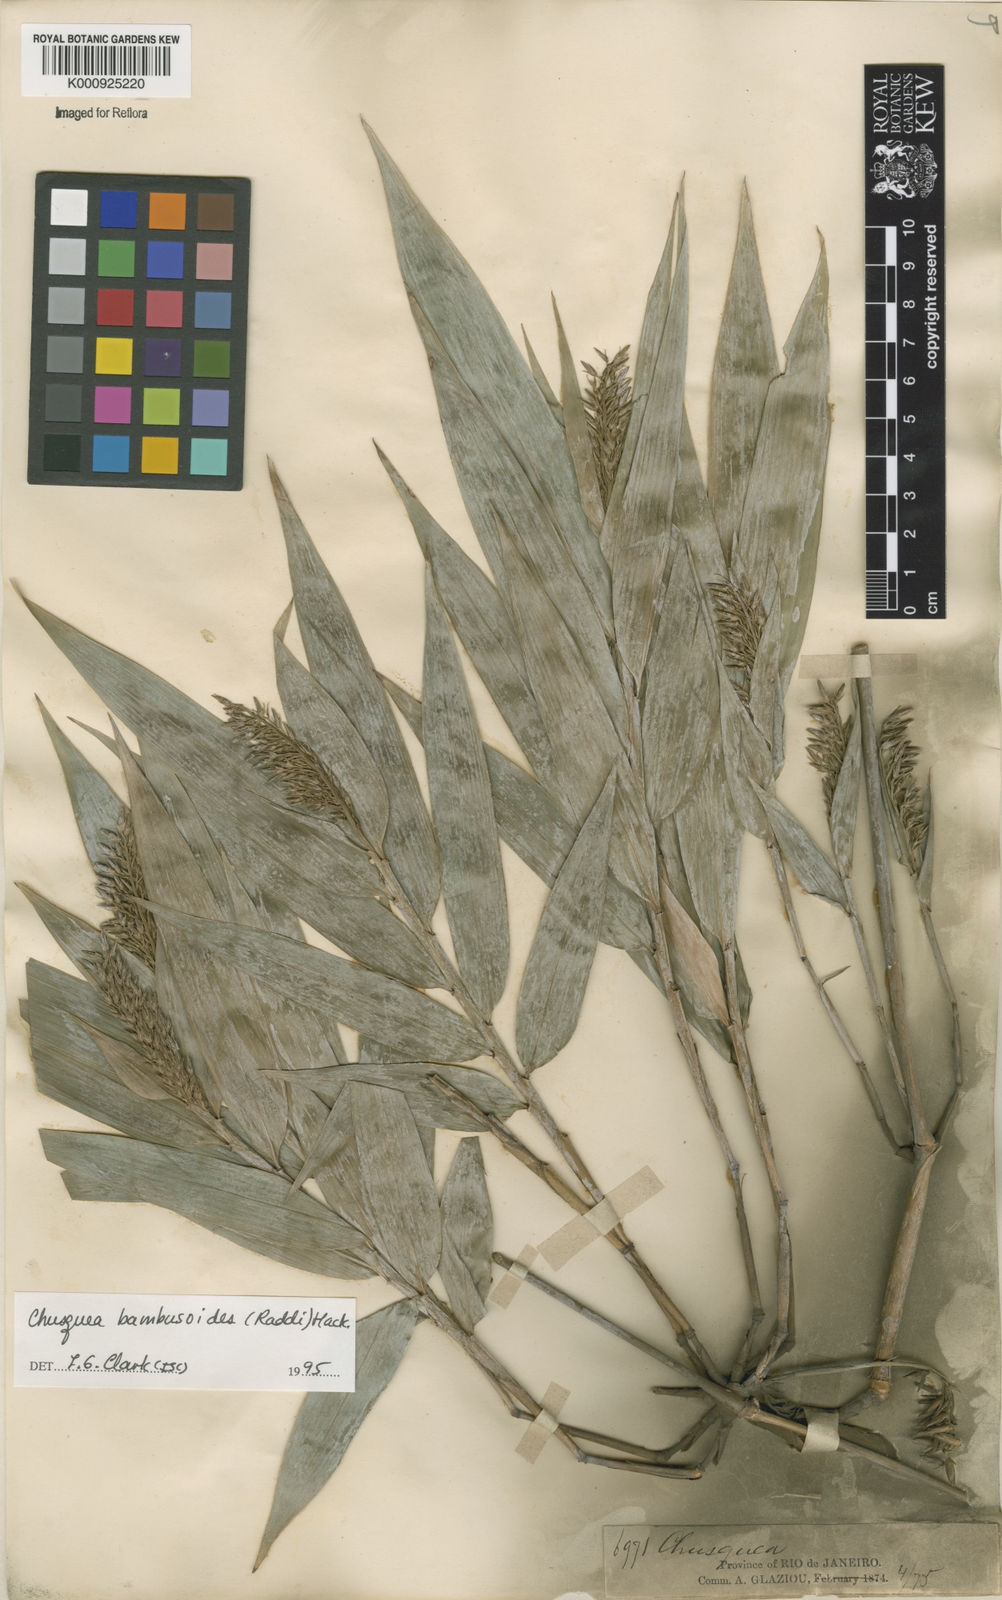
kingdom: Plantae
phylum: Tracheophyta
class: Liliopsida
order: Poales
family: Poaceae
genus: Chusquea
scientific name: Chusquea bambusoides
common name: Brazil scrambling bamboo
